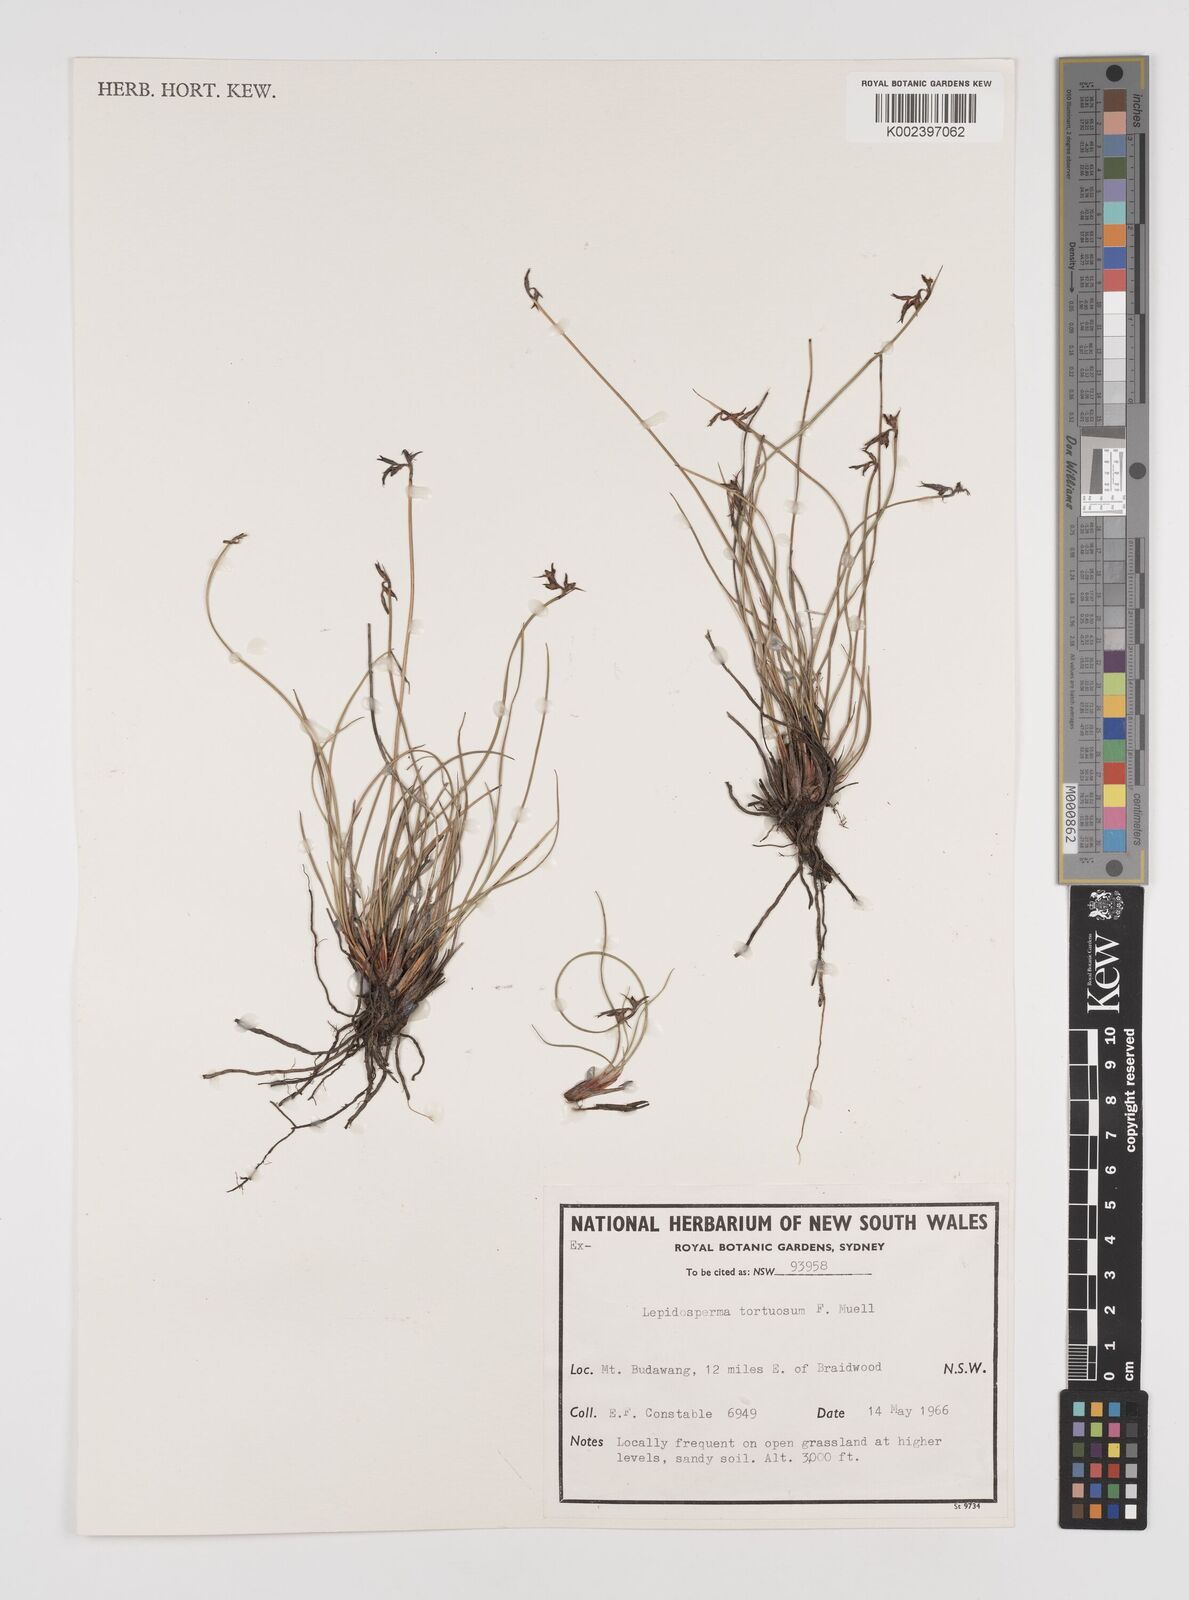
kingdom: Plantae
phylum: Tracheophyta
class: Liliopsida
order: Poales
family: Cyperaceae
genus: Lepidosperma
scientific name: Lepidosperma tortuosum
